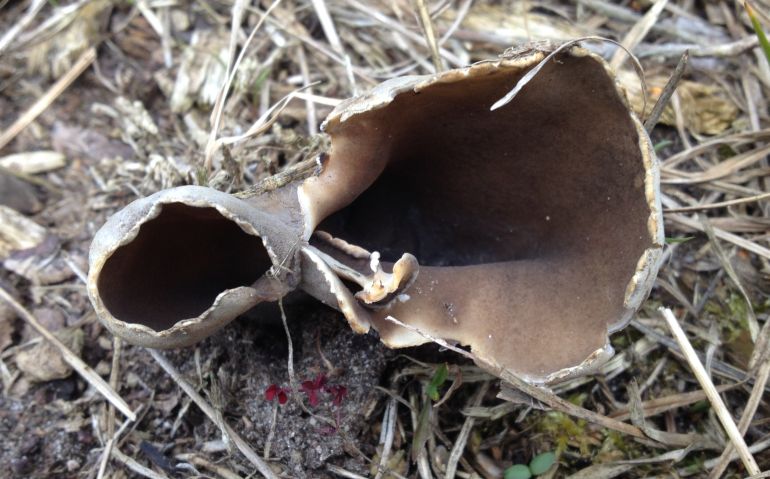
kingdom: Fungi
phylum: Ascomycota
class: Pezizomycetes
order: Pezizales
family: Helvellaceae
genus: Dissingia
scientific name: Dissingia leucomelaena
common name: sorthvid foldhat
